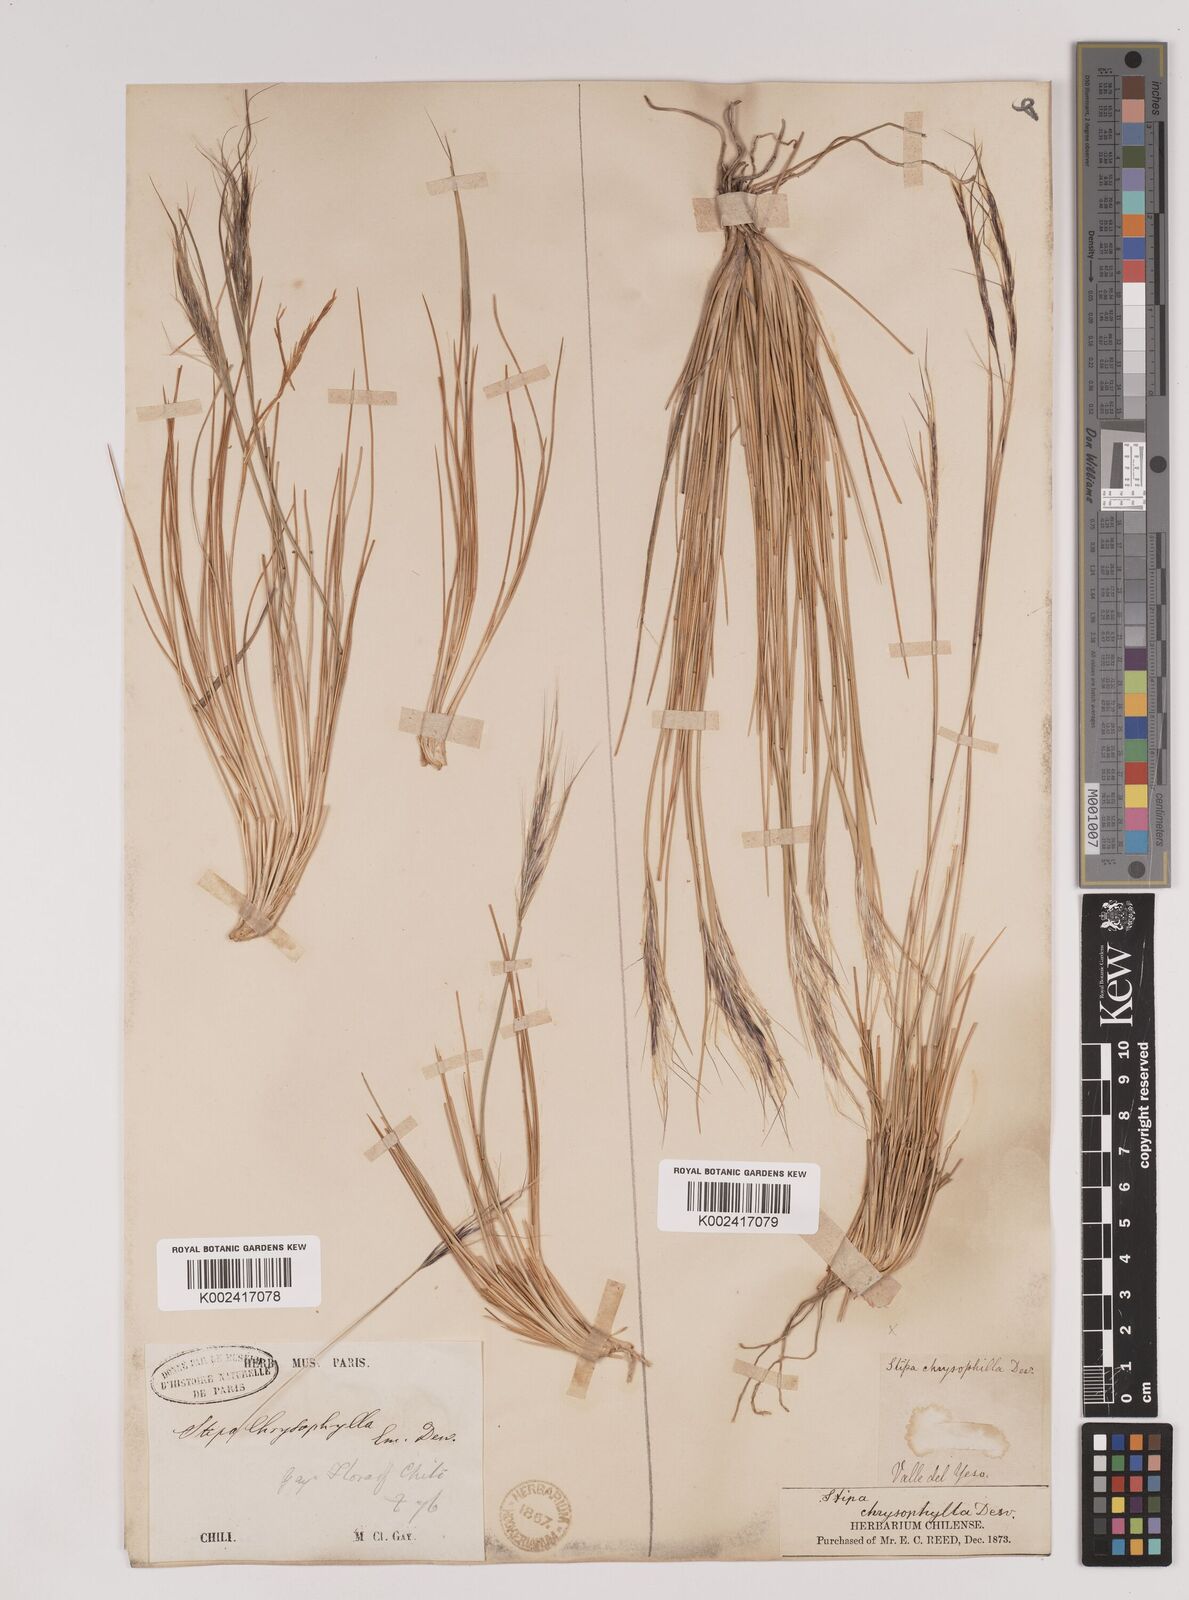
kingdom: Plantae
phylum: Tracheophyta
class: Liliopsida
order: Poales
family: Poaceae
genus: Pappostipa
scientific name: Pappostipa chrysophylla
